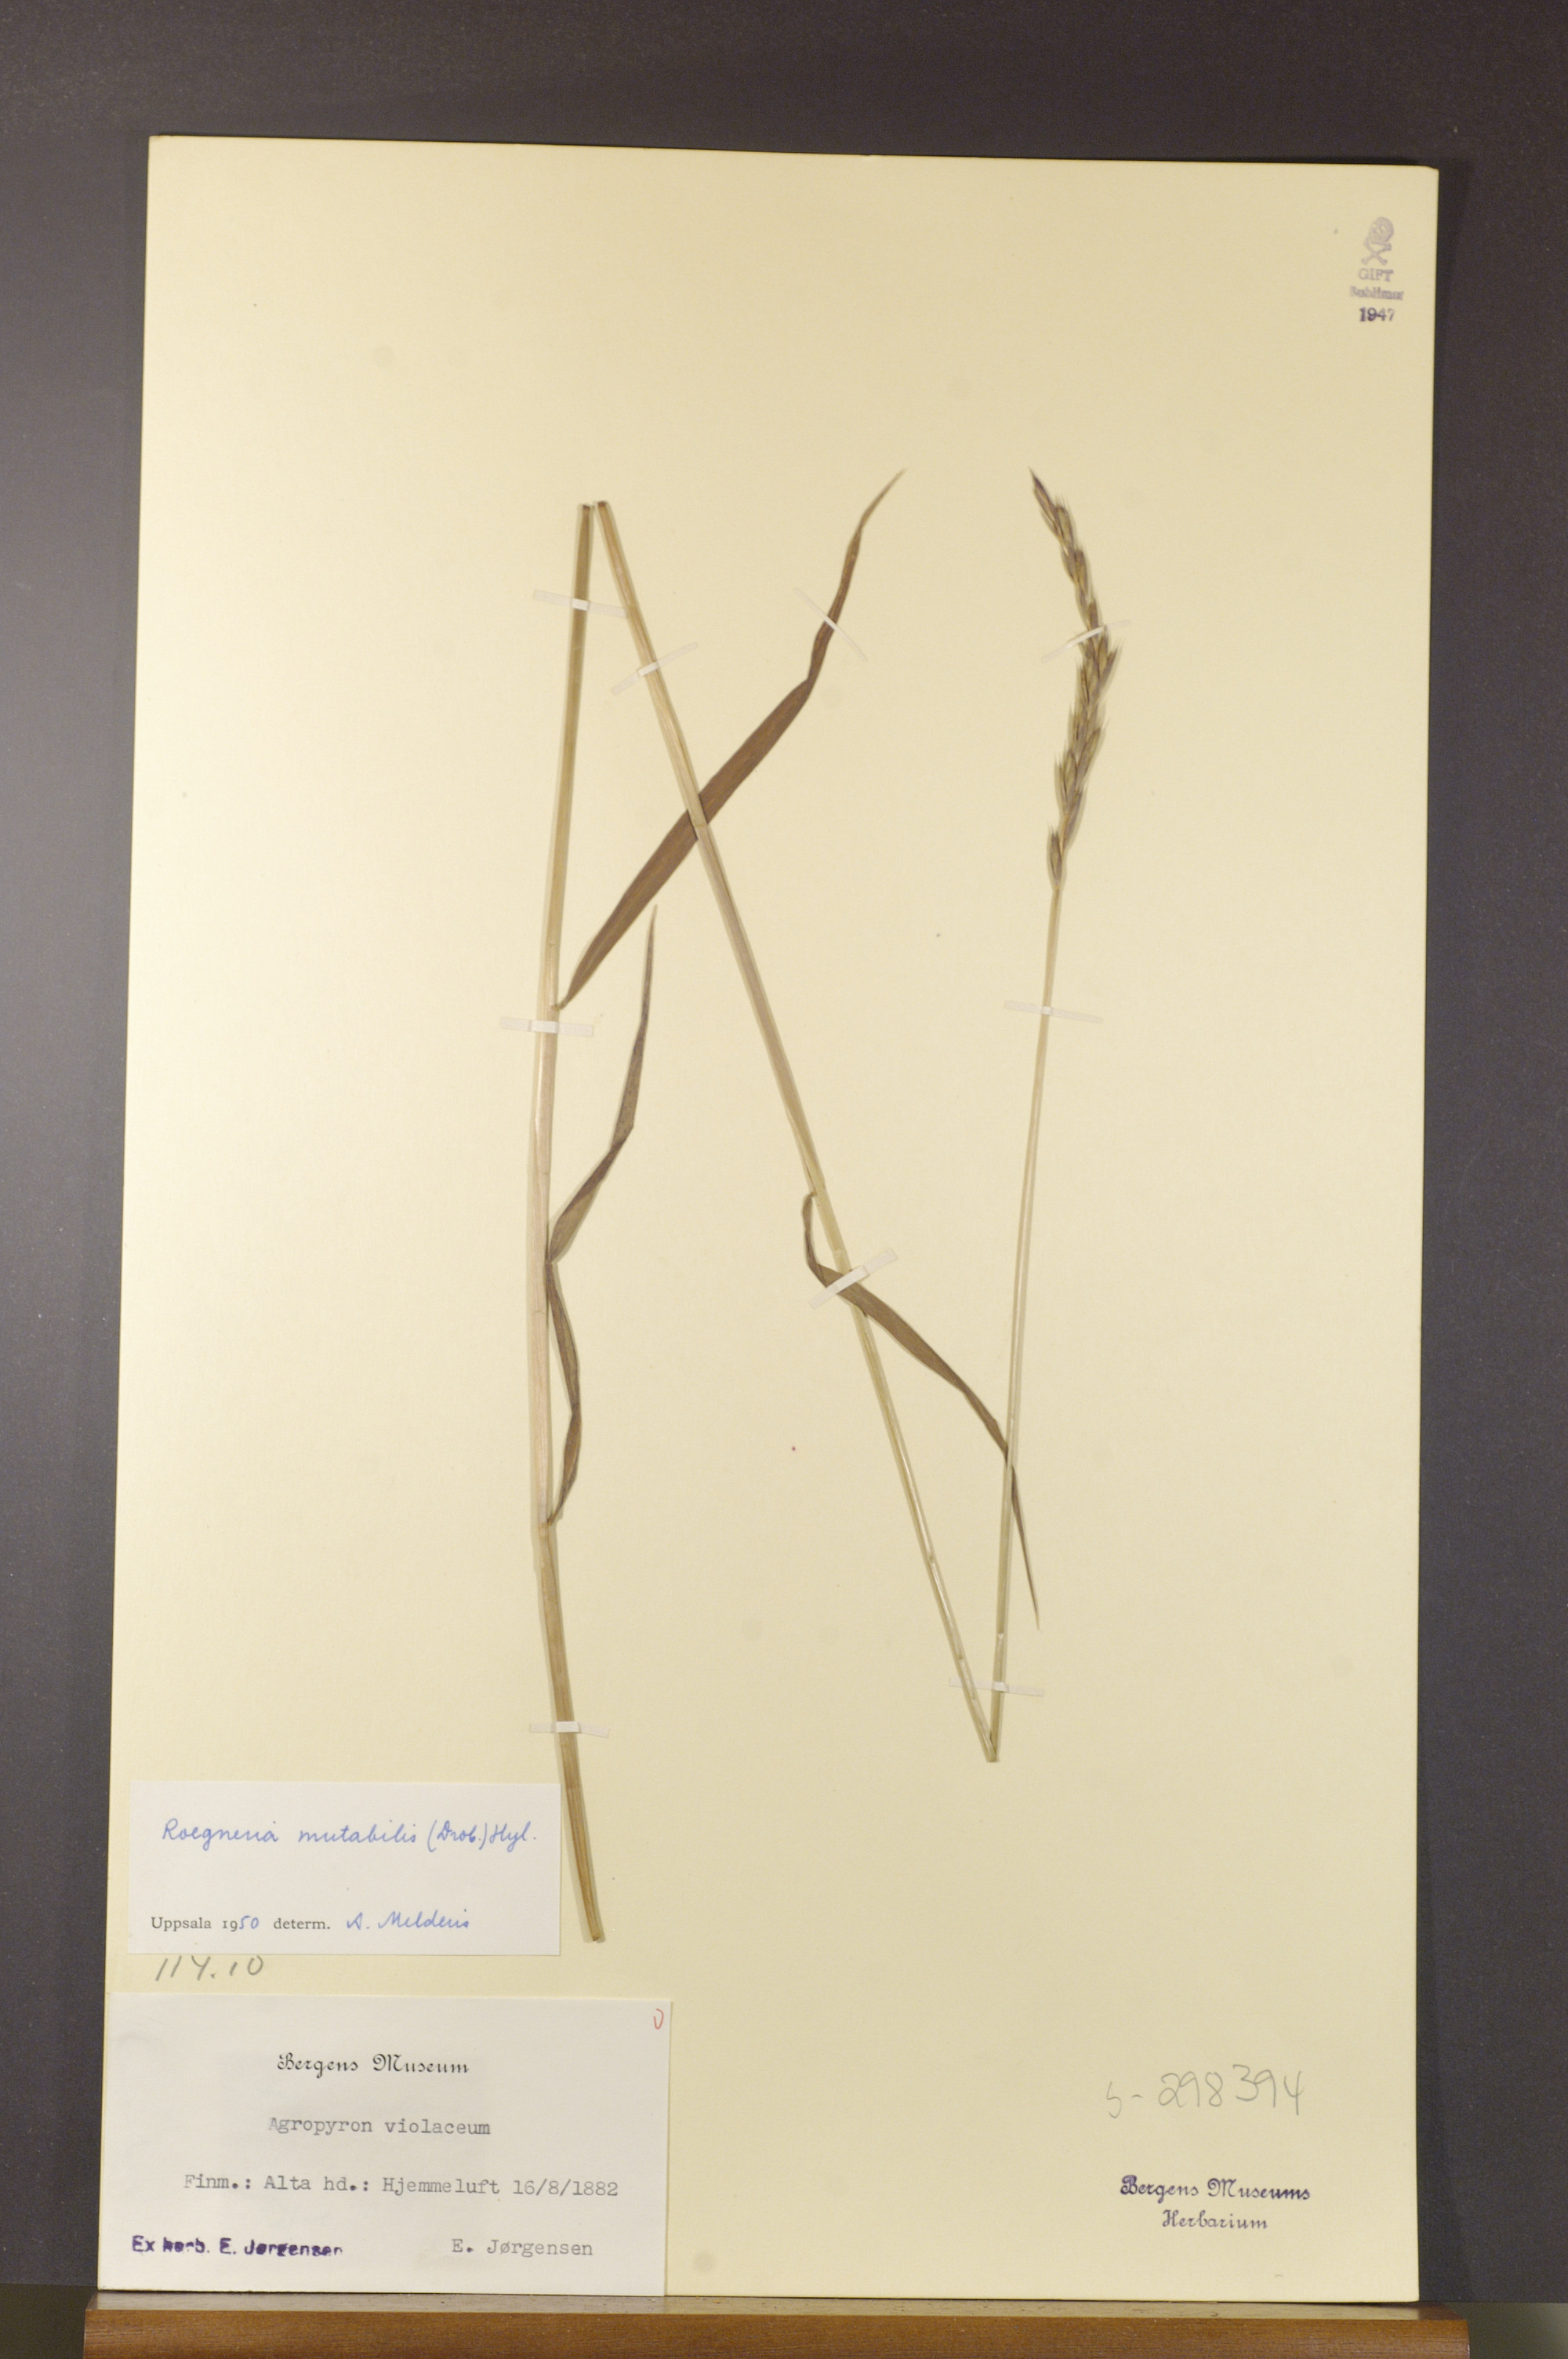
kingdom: Plantae
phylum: Tracheophyta
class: Liliopsida
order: Poales
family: Poaceae
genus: Elymus
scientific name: Elymus mutabilis
